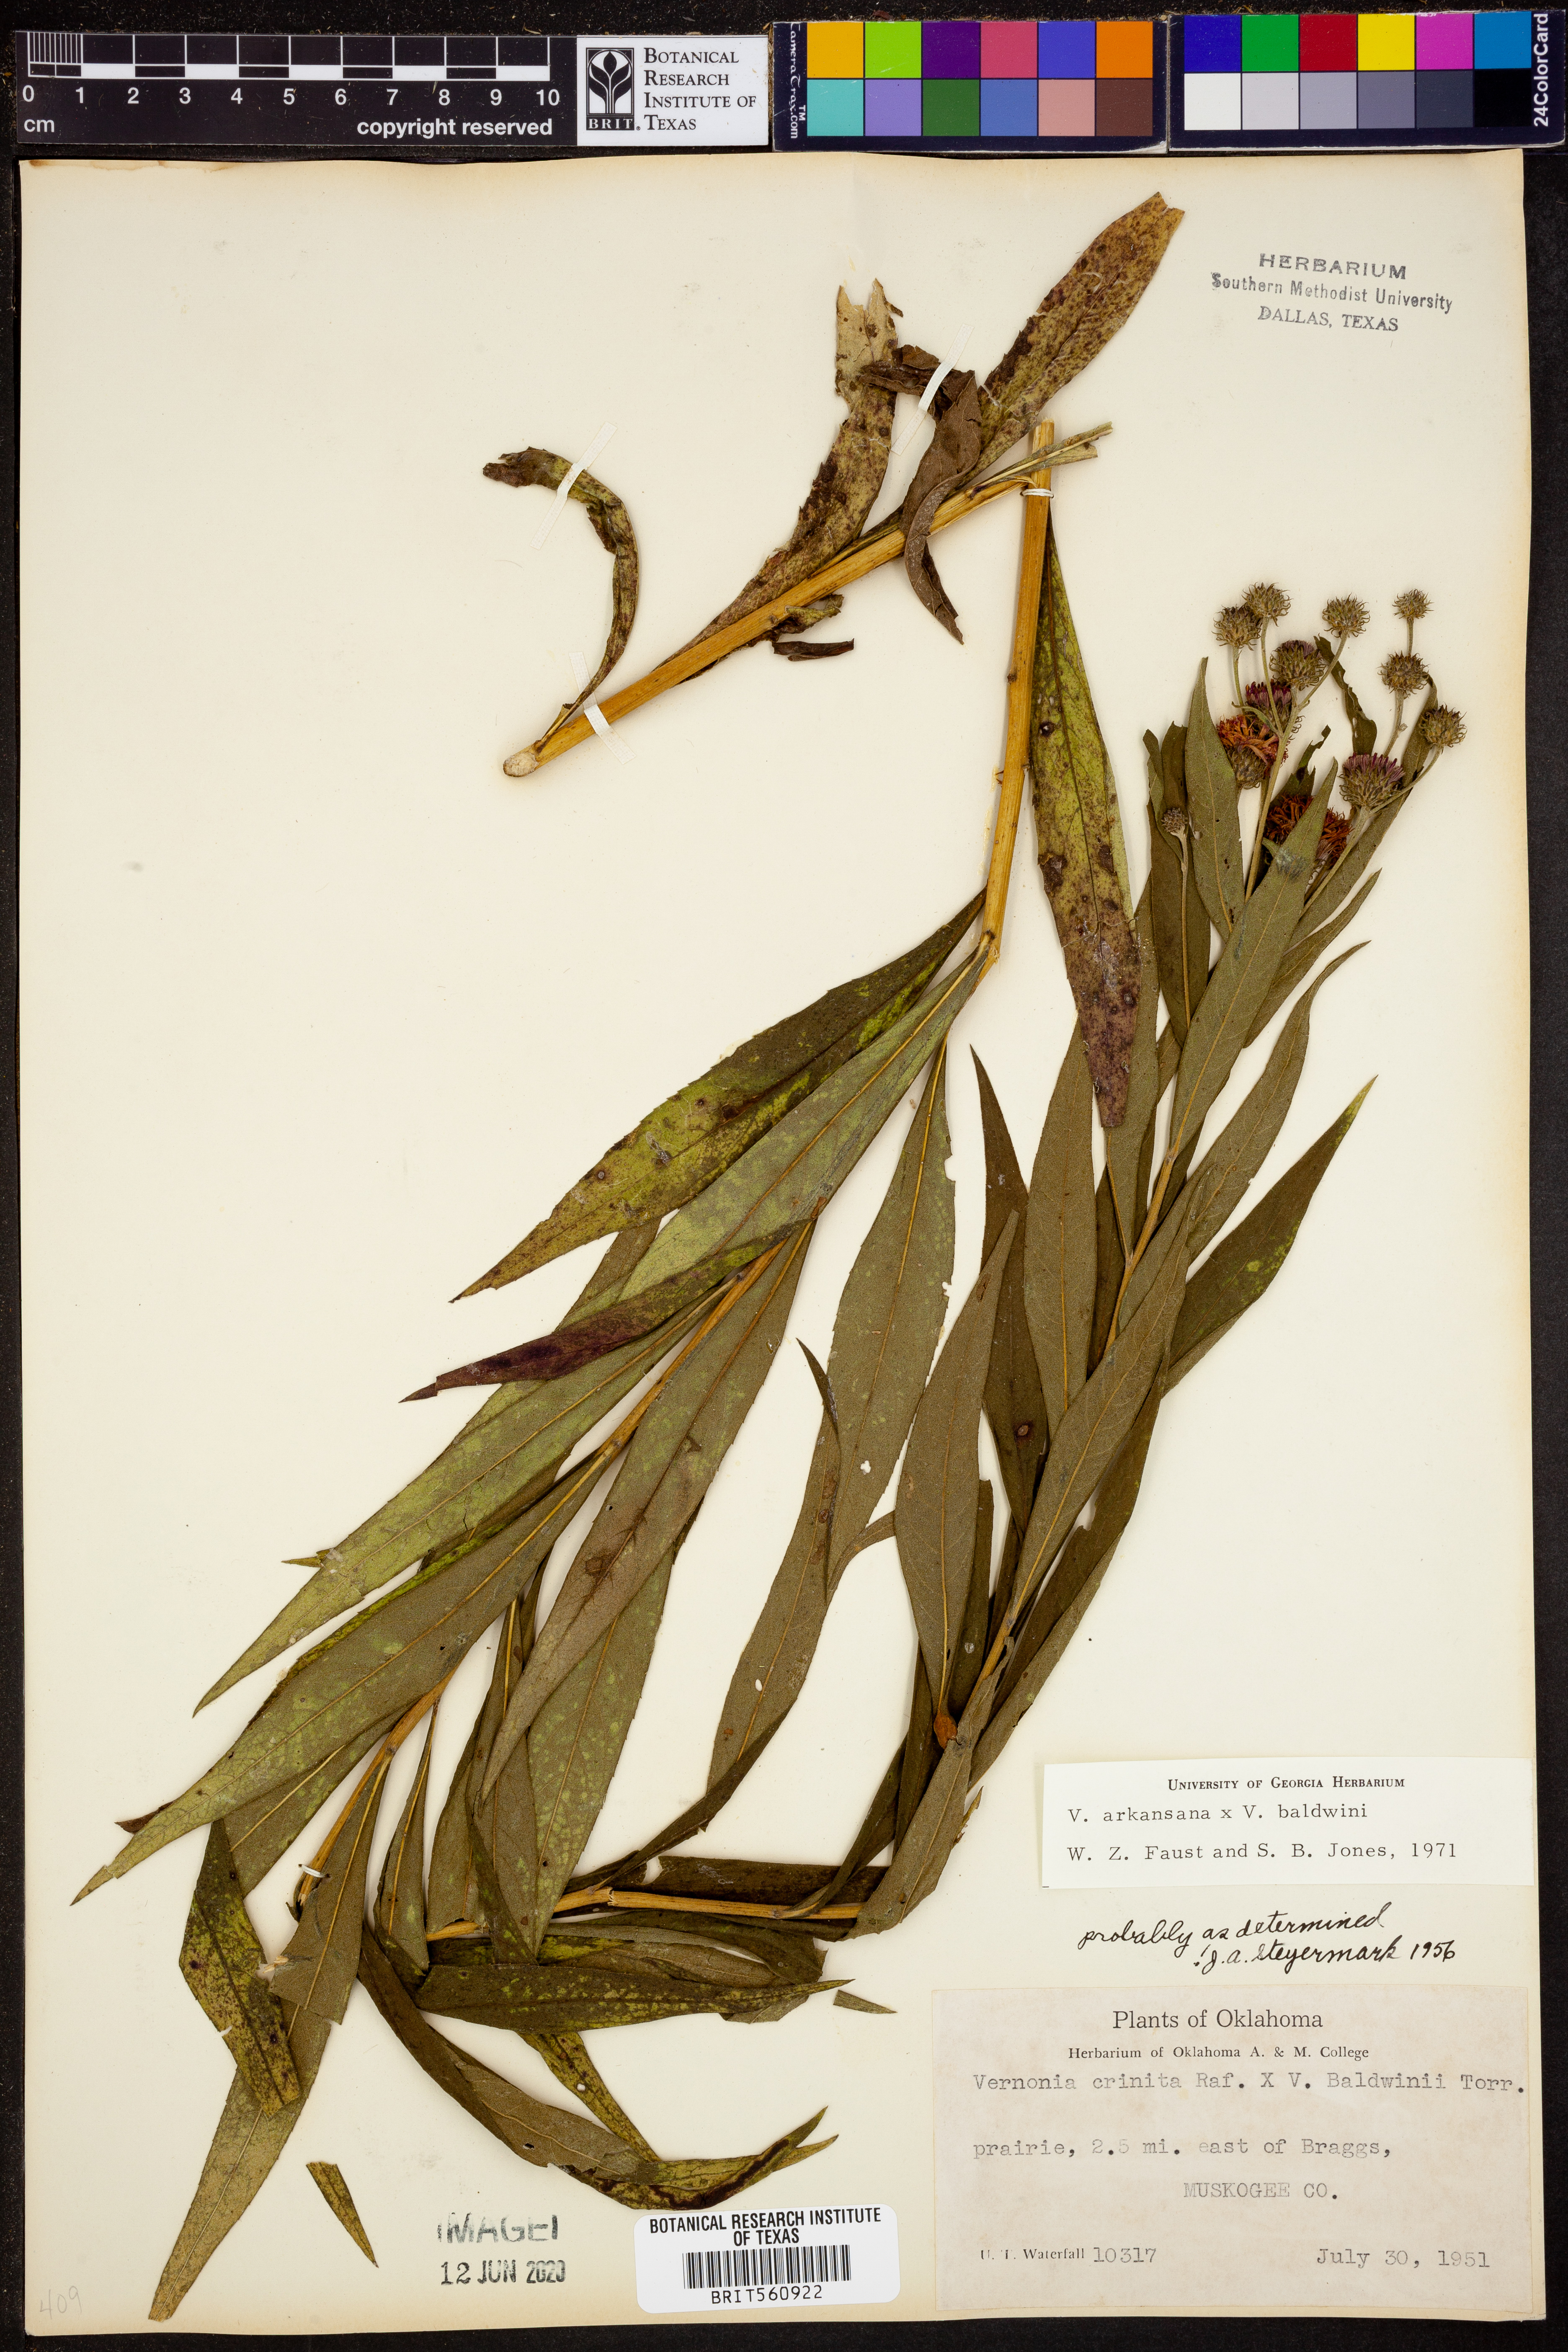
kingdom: Plantae
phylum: Tracheophyta
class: Magnoliopsida
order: Asterales
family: Asteraceae
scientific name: Asteraceae
